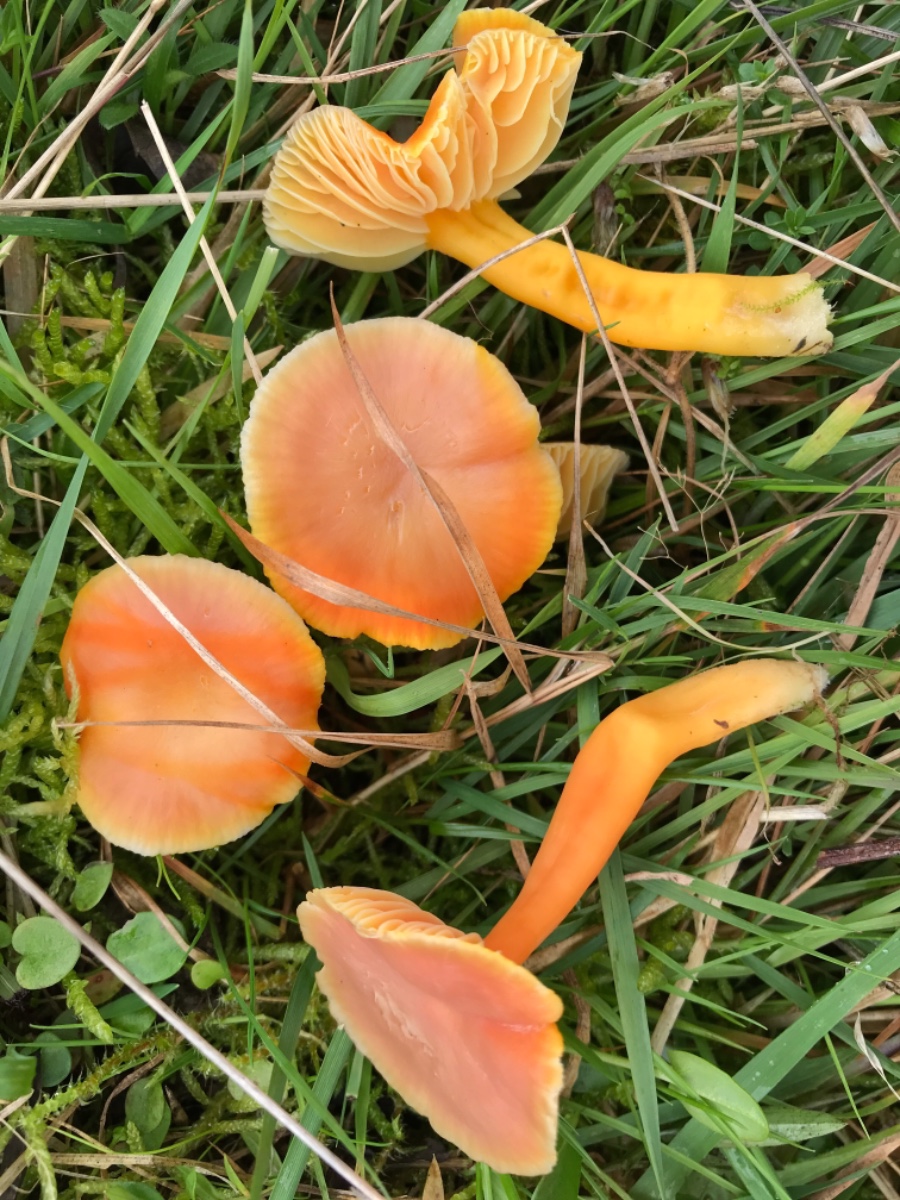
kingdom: Fungi
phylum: Basidiomycota
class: Agaricomycetes
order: Agaricales
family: Hygrophoraceae
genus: Hygrocybe
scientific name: Hygrocybe reidii
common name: honning-vokshat
